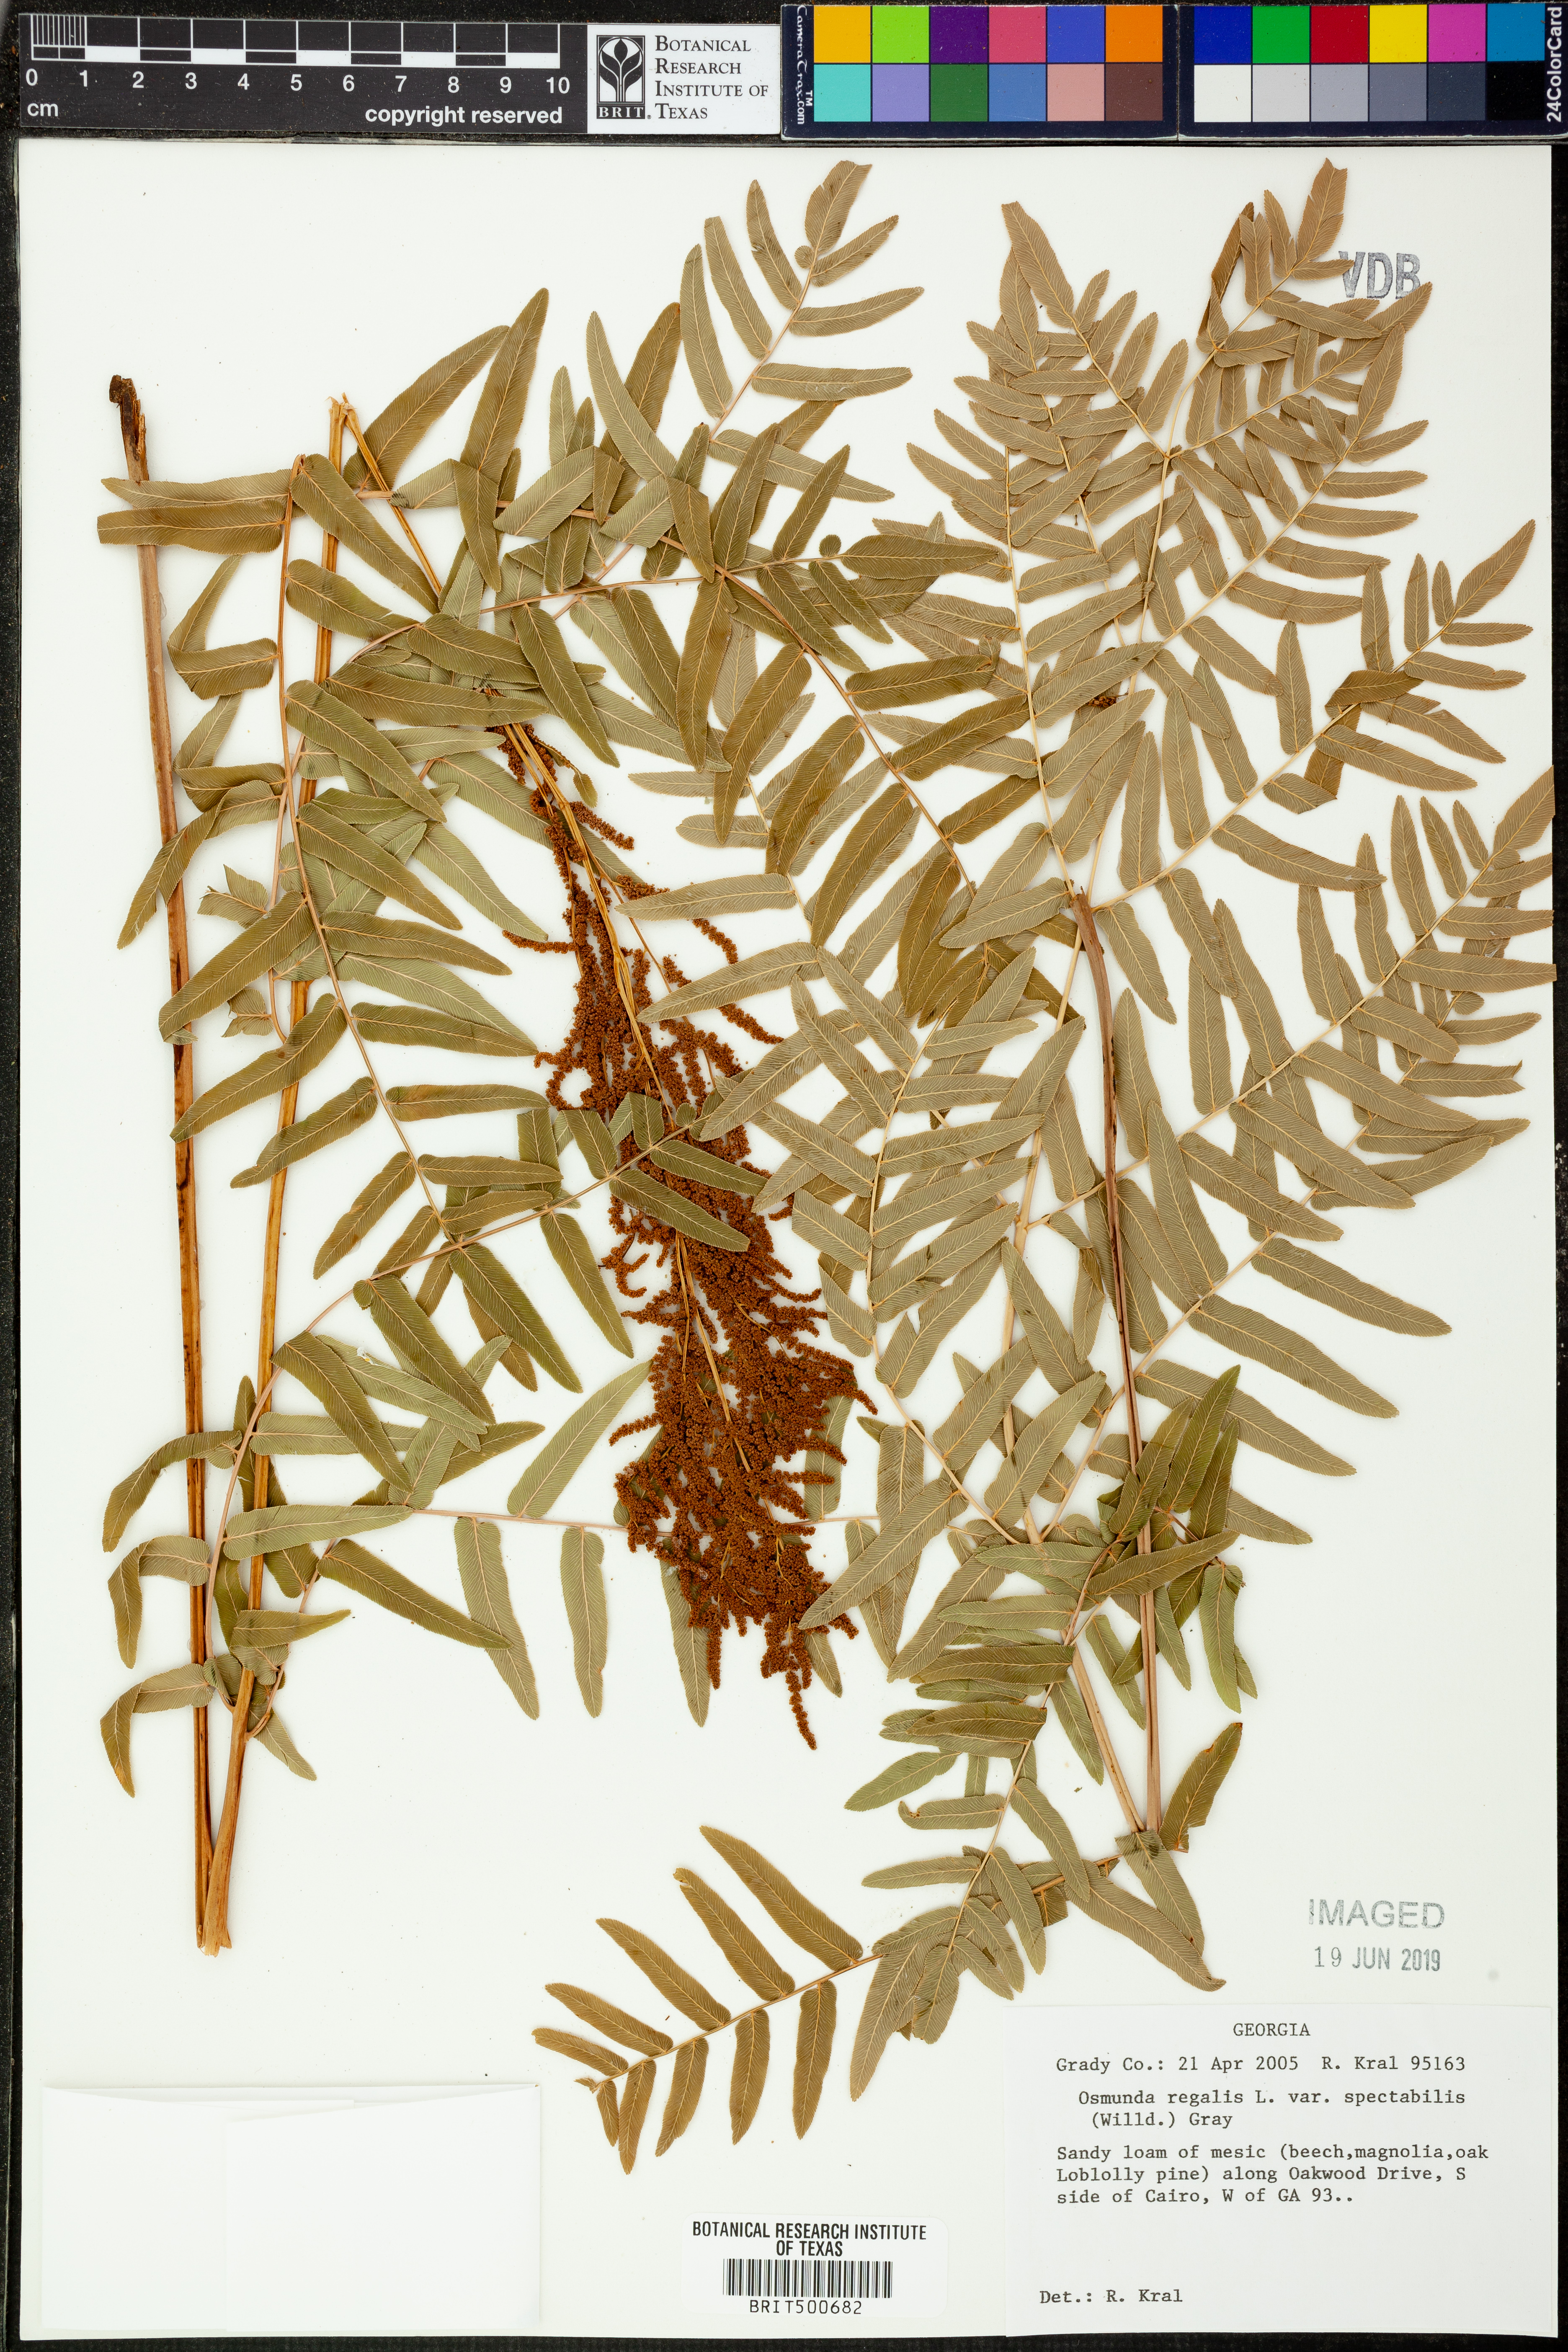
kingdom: Plantae
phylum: Tracheophyta
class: Polypodiopsida
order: Osmundales
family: Osmundaceae
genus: Osmunda
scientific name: Osmunda spectabilis
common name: American royal fern
